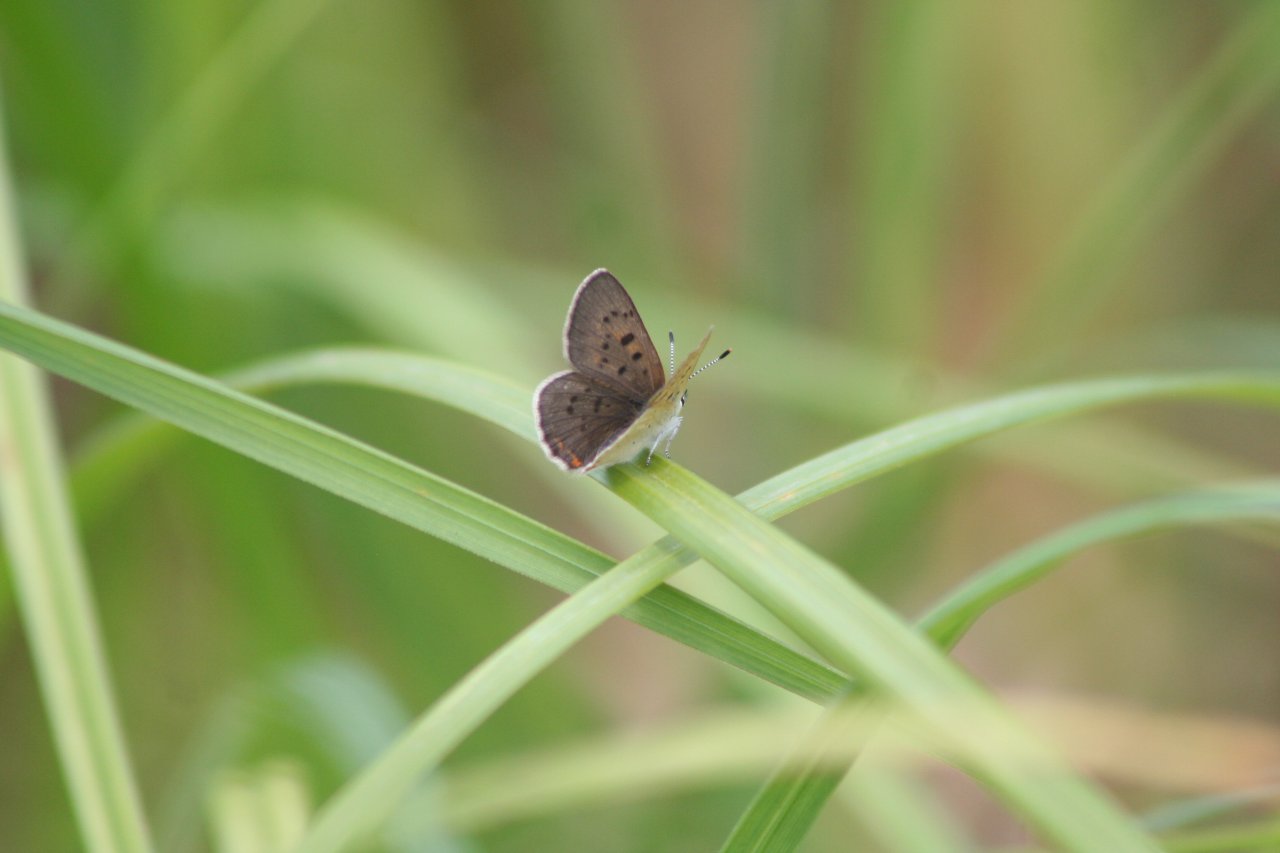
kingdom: Animalia
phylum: Arthropoda
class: Insecta
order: Lepidoptera
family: Sesiidae
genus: Sesia
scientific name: Sesia Lycaena epixanthe
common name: Bog Copper
